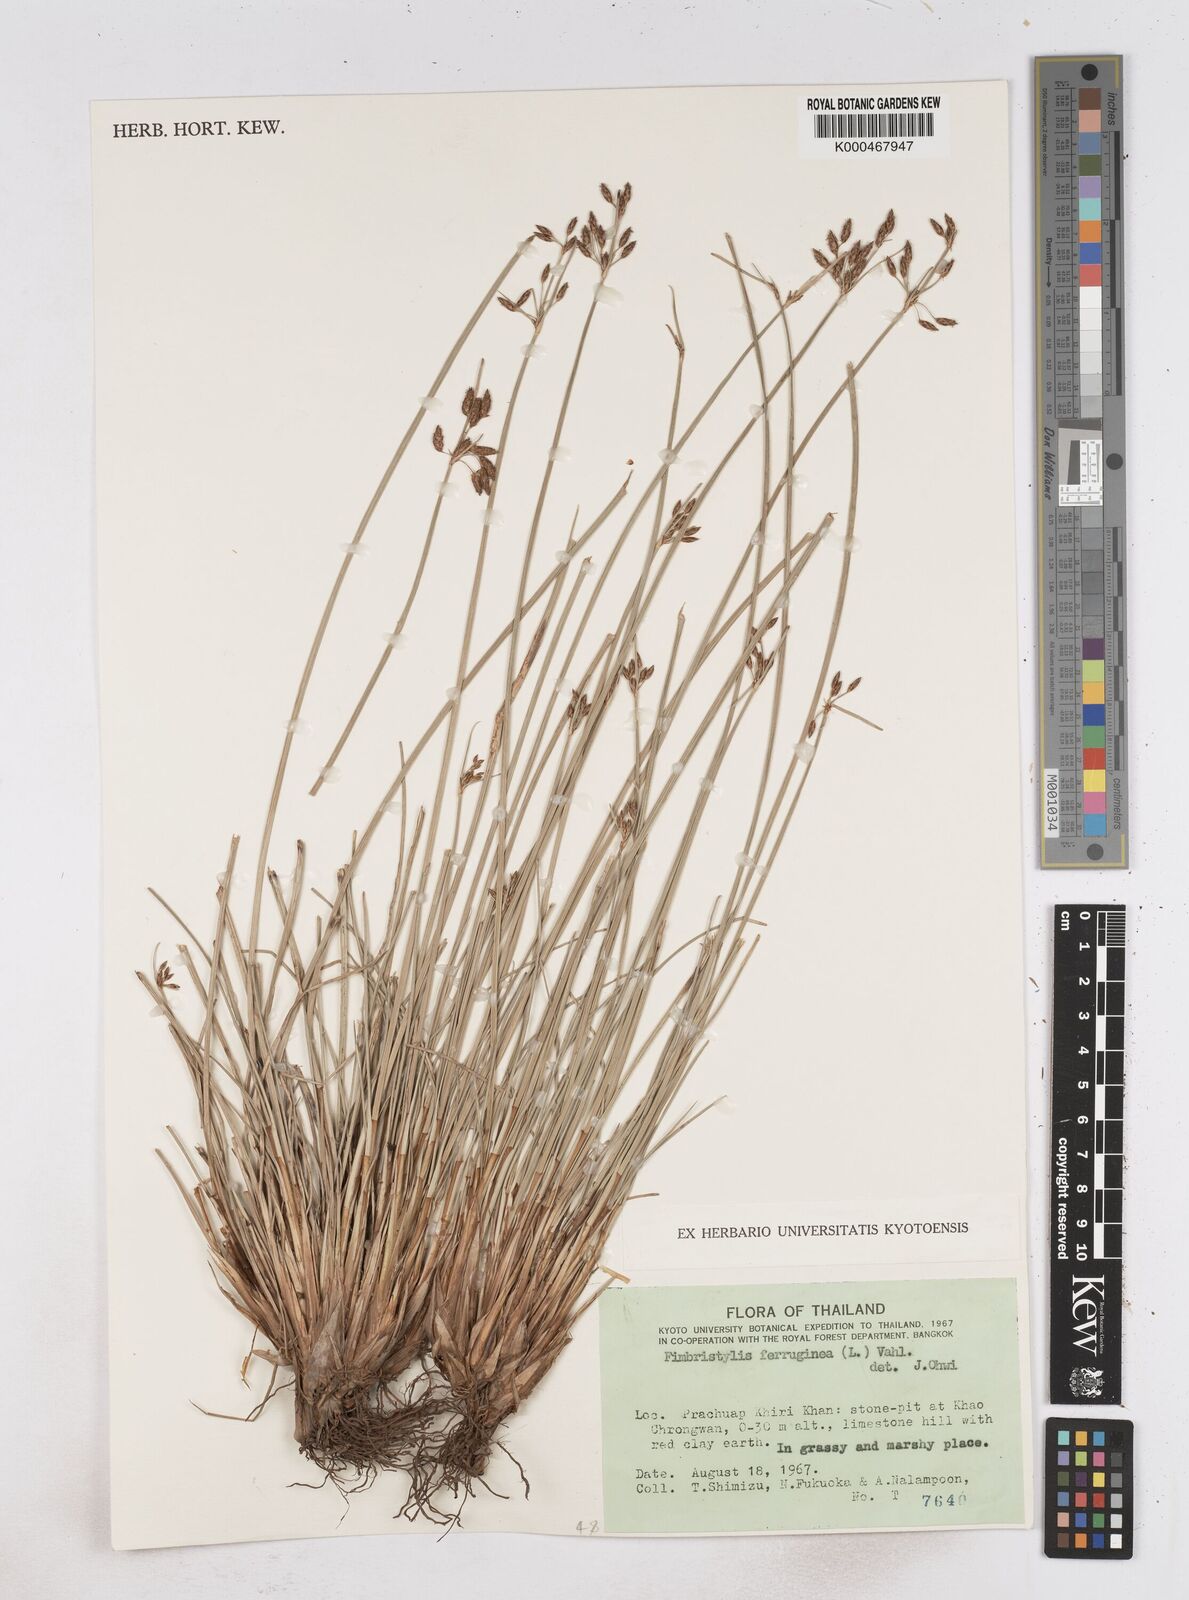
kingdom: Plantae
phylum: Tracheophyta
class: Liliopsida
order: Poales
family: Cyperaceae
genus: Fimbristylis
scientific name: Fimbristylis ferruginea
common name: West indian fimbry
